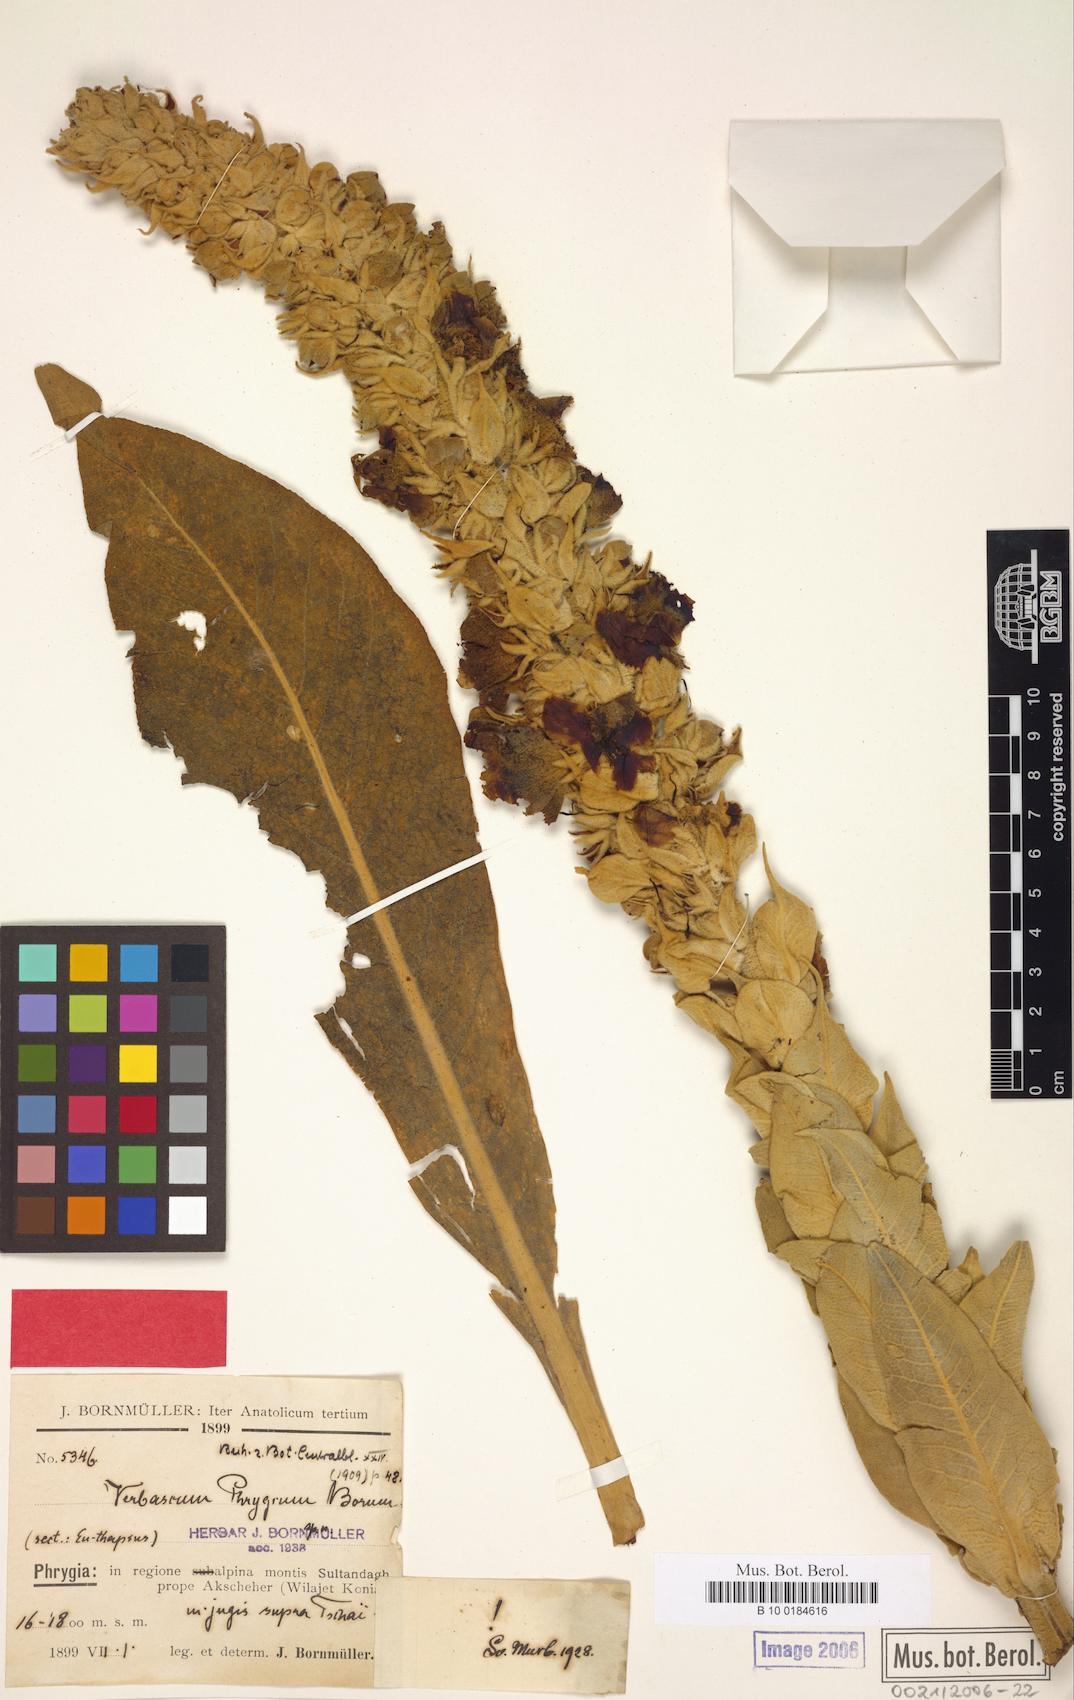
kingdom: Plantae
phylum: Tracheophyta
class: Magnoliopsida
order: Lamiales
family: Scrophulariaceae
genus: Verbascum
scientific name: Verbascum phrygium
